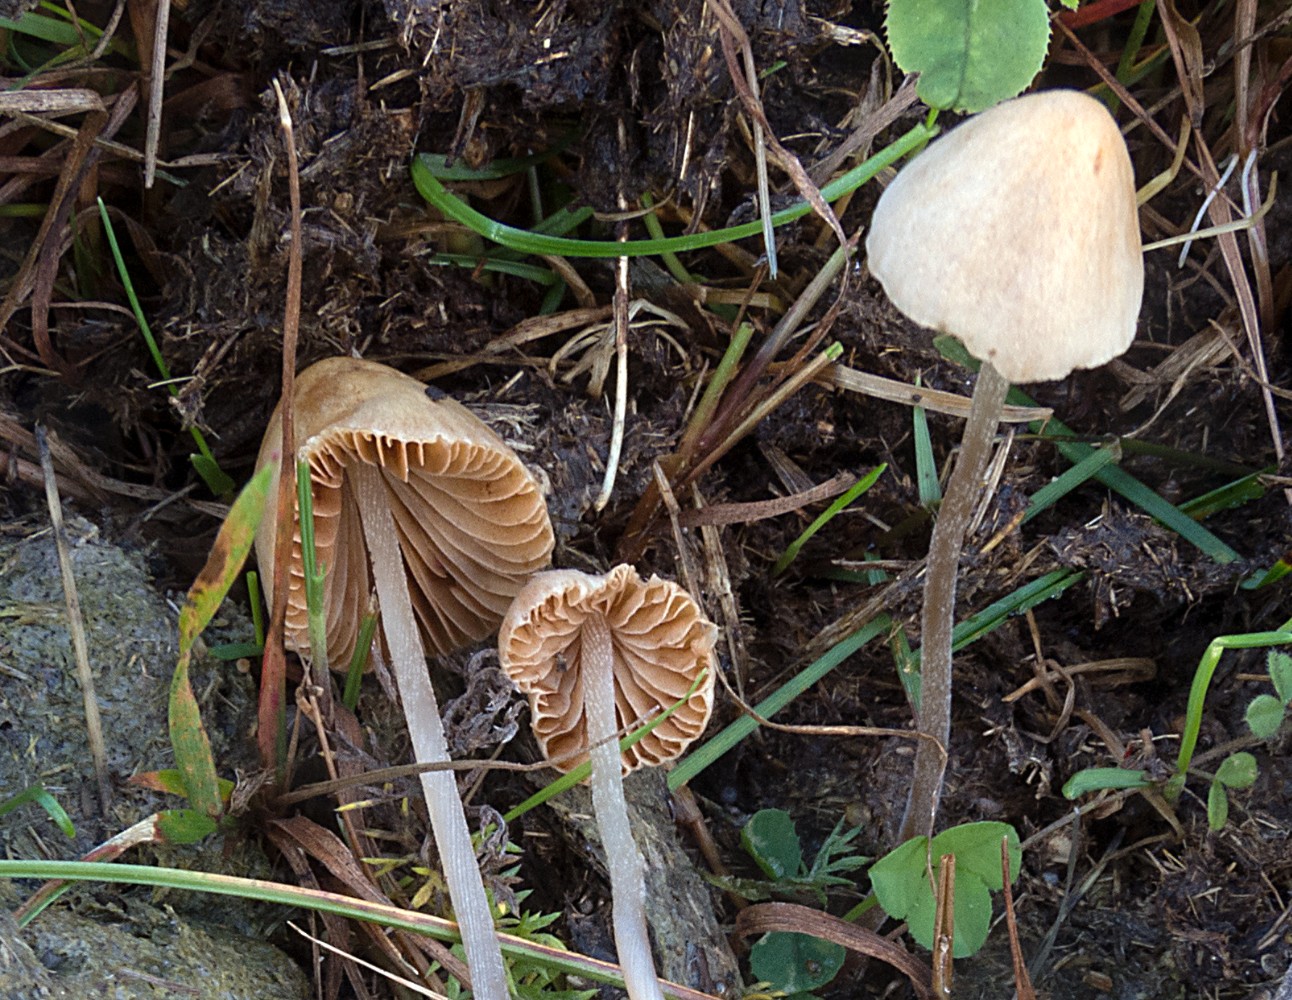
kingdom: Fungi
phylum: Basidiomycota
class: Agaricomycetes
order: Agaricales
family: Bolbitiaceae
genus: Conocybe
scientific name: Conocybe rickenii
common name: møg-keglehat
